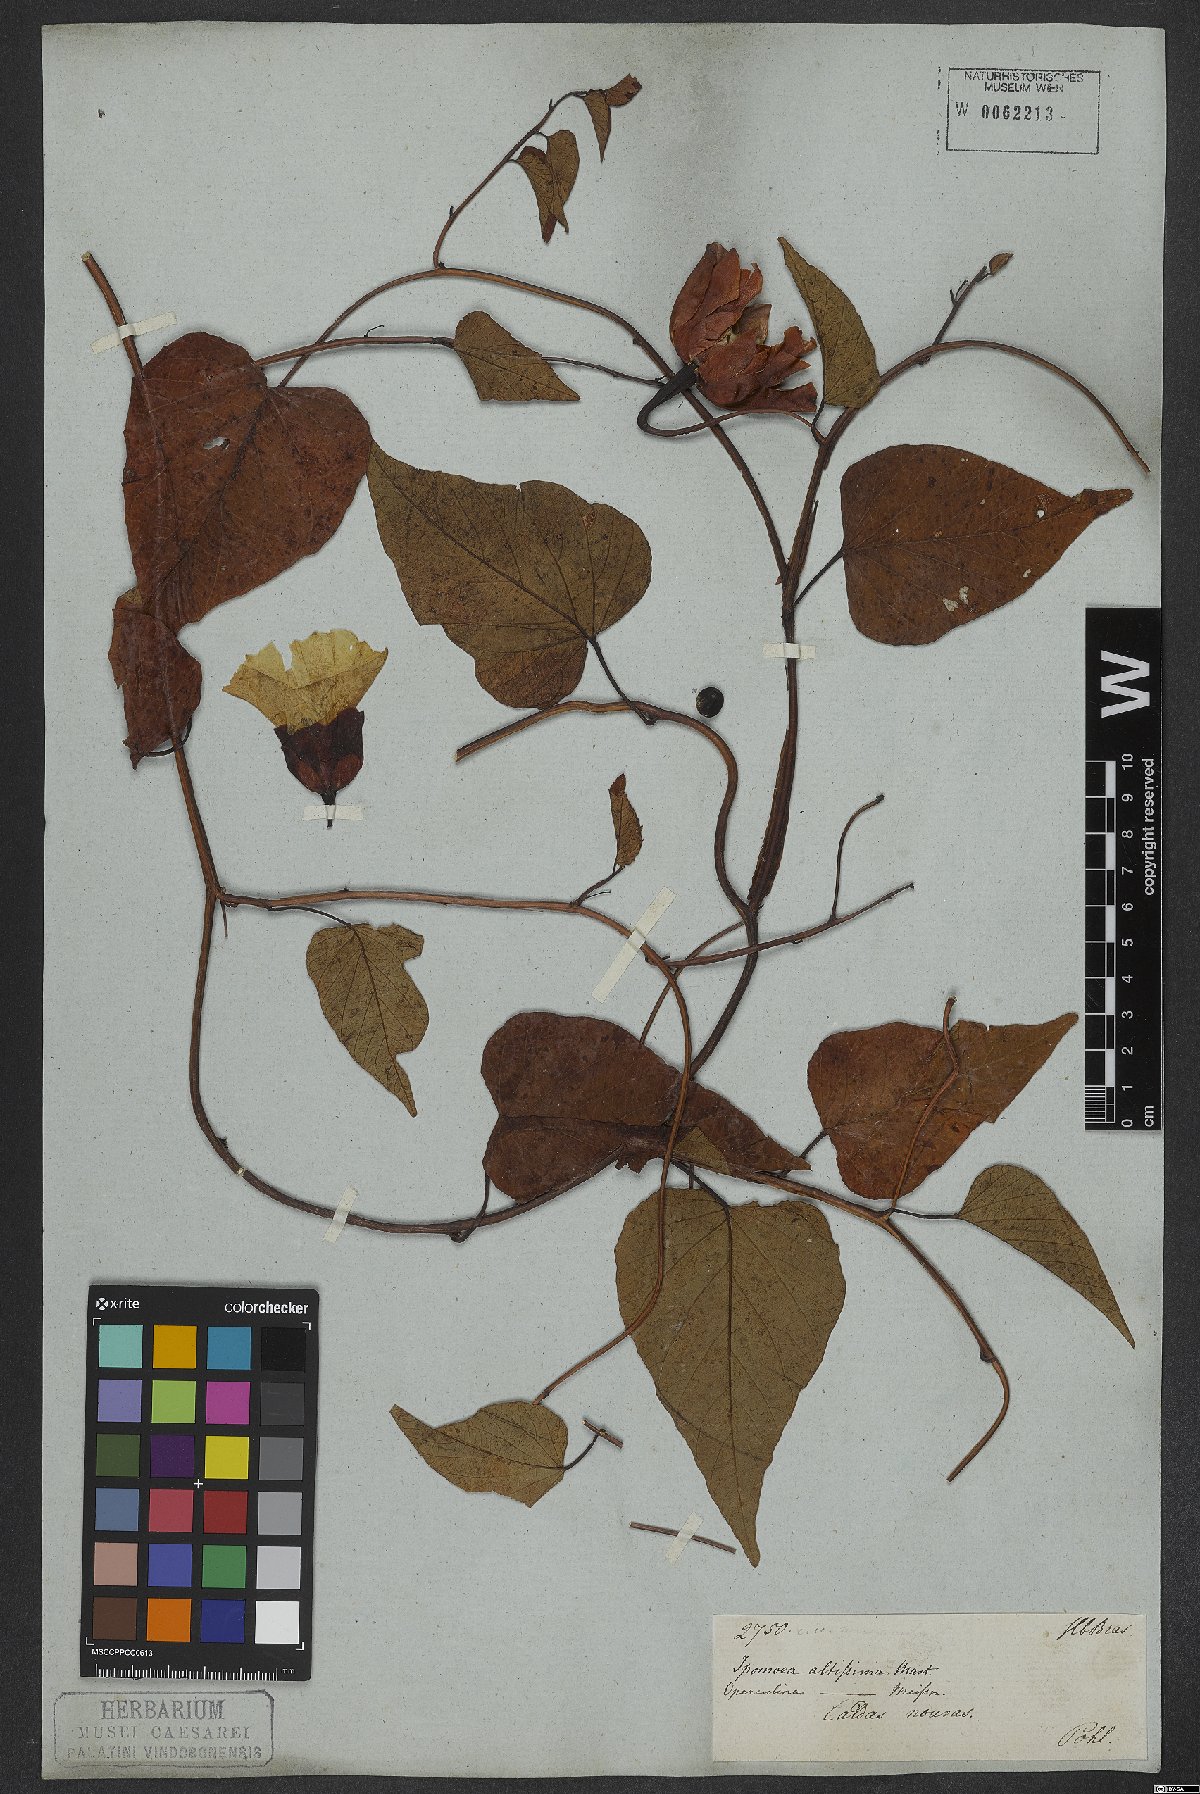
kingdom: Plantae
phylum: Tracheophyta
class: Magnoliopsida
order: Solanales
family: Convolvulaceae
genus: Ipomoea
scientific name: Ipomoea racemosa
